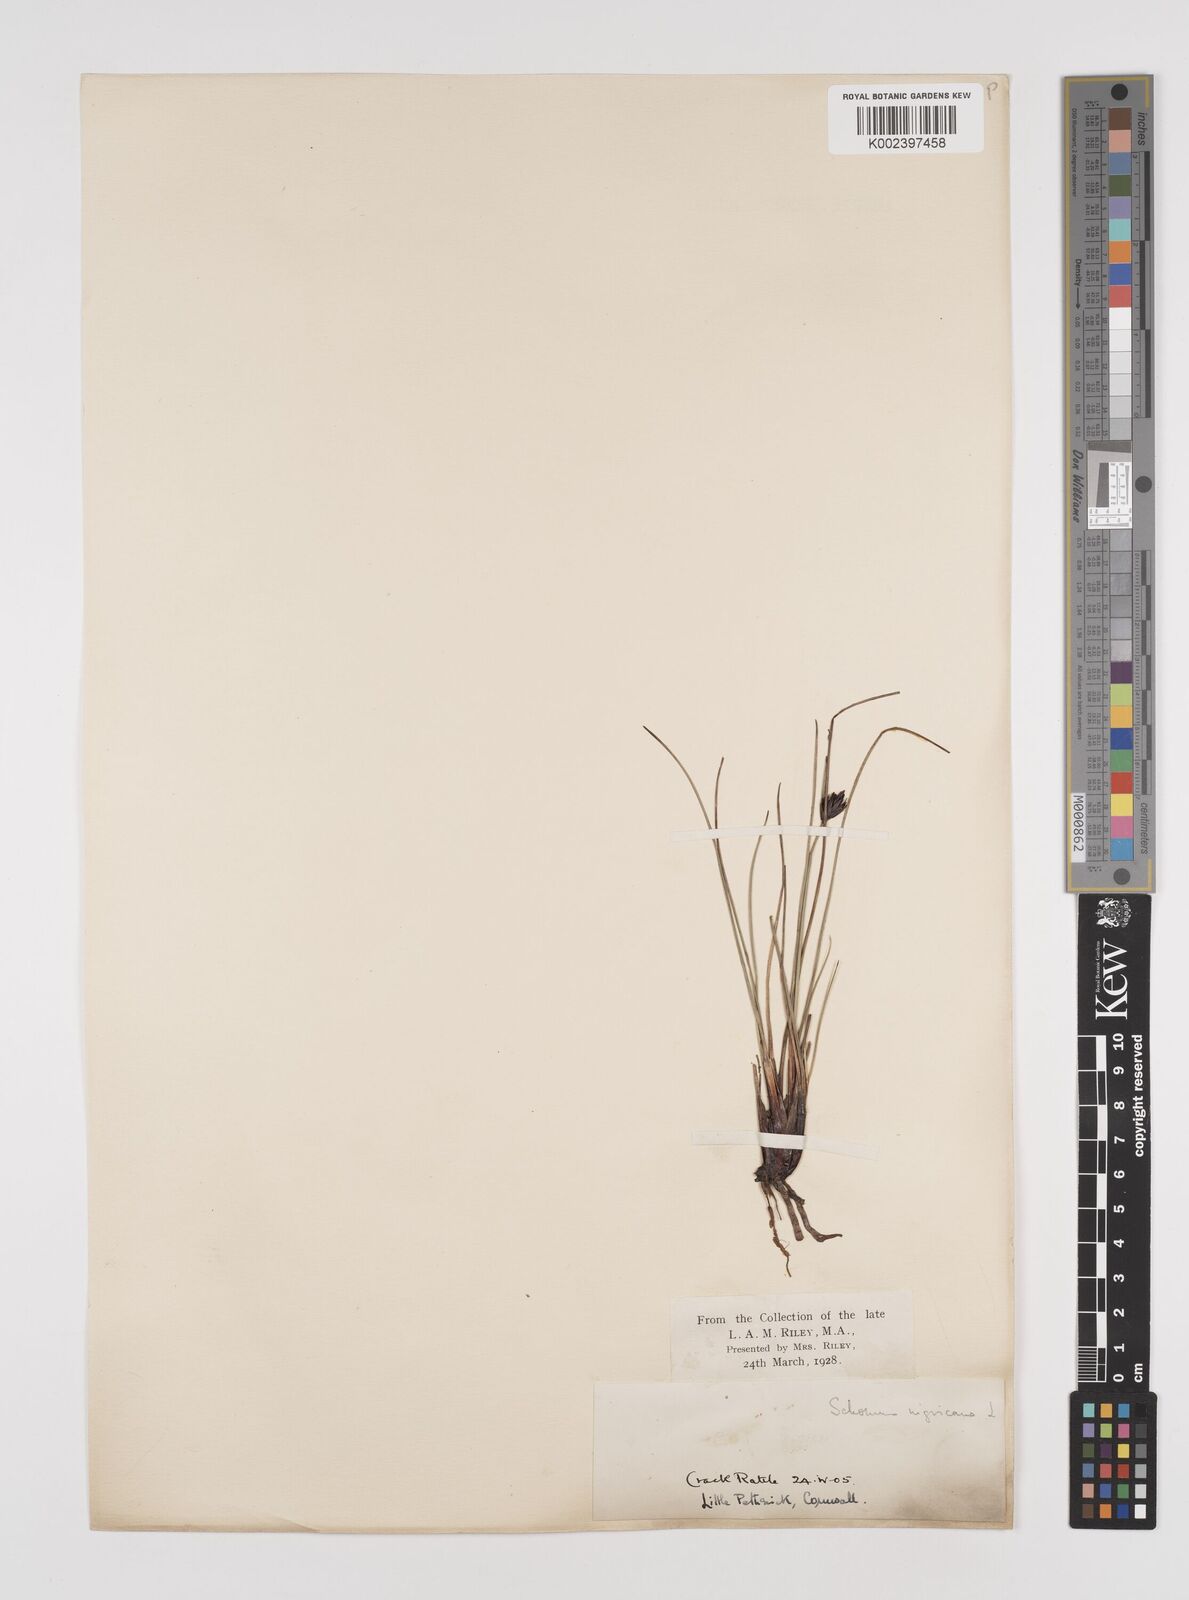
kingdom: Plantae
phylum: Tracheophyta
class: Liliopsida
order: Poales
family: Cyperaceae
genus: Schoenus
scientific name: Schoenus nigricans
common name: Black bog-rush
